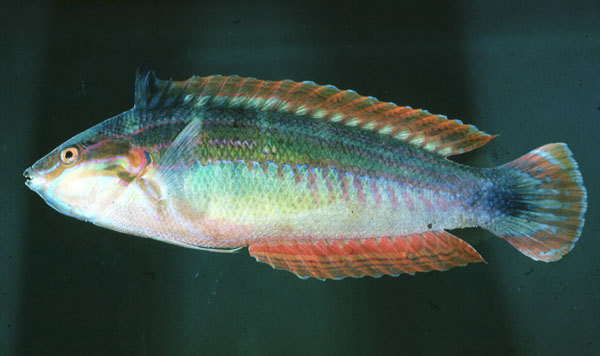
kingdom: Animalia
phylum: Chordata
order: Perciformes
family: Labridae
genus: Coris
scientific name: Coris caudimacula
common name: Spottail coris
